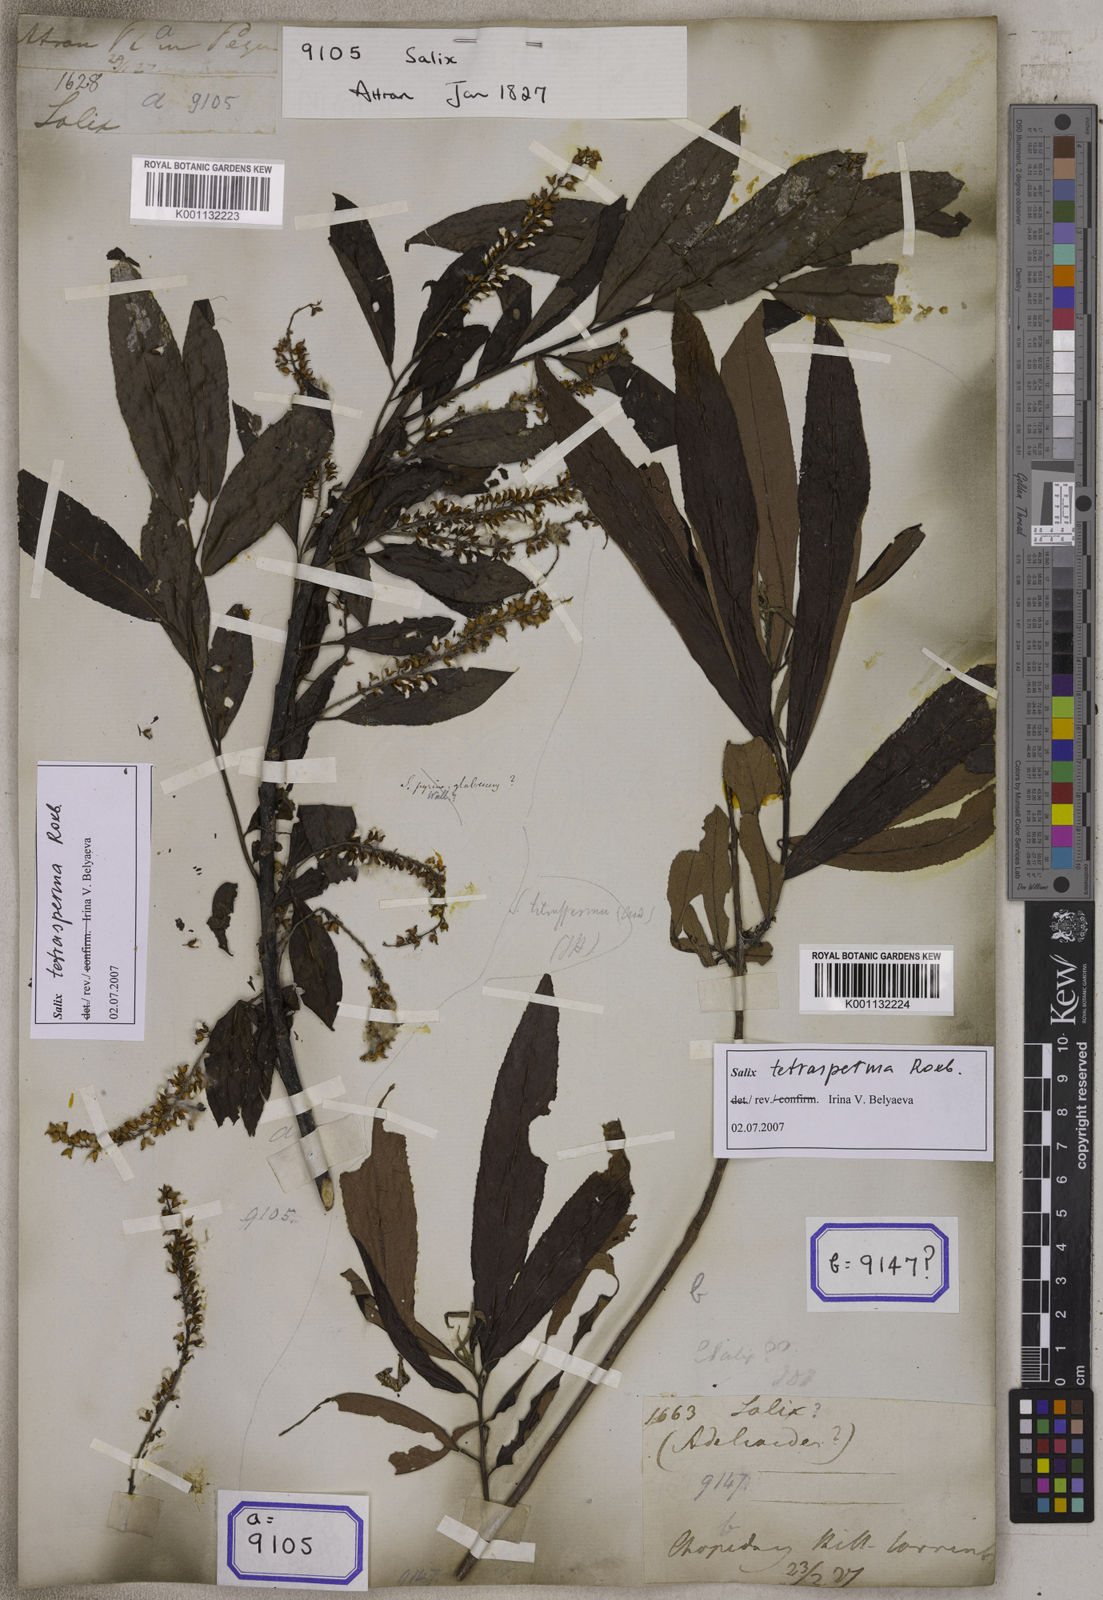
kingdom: Plantae
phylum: Tracheophyta
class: Magnoliopsida
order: Malpighiales
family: Euphorbiaceae
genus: Homonoia
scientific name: Homonoia
